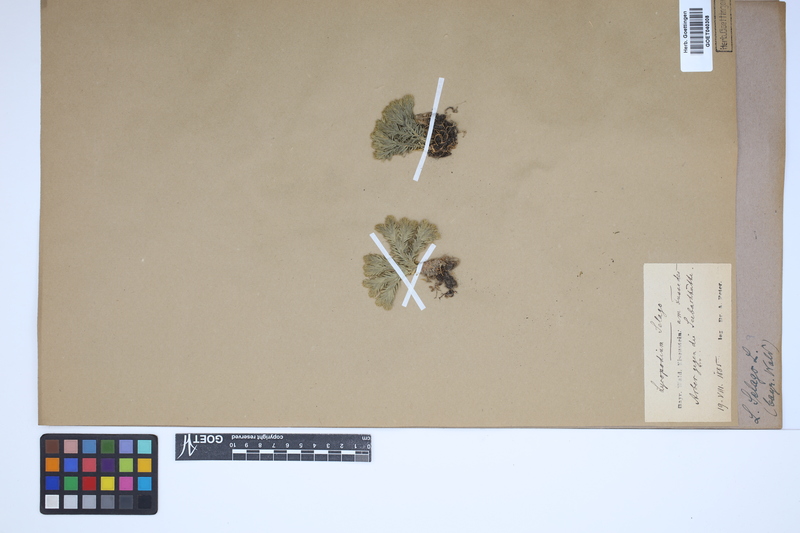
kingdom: Plantae
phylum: Tracheophyta
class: Lycopodiopsida
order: Lycopodiales
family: Lycopodiaceae
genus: Huperzia
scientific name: Huperzia selago
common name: Northern firmoss
